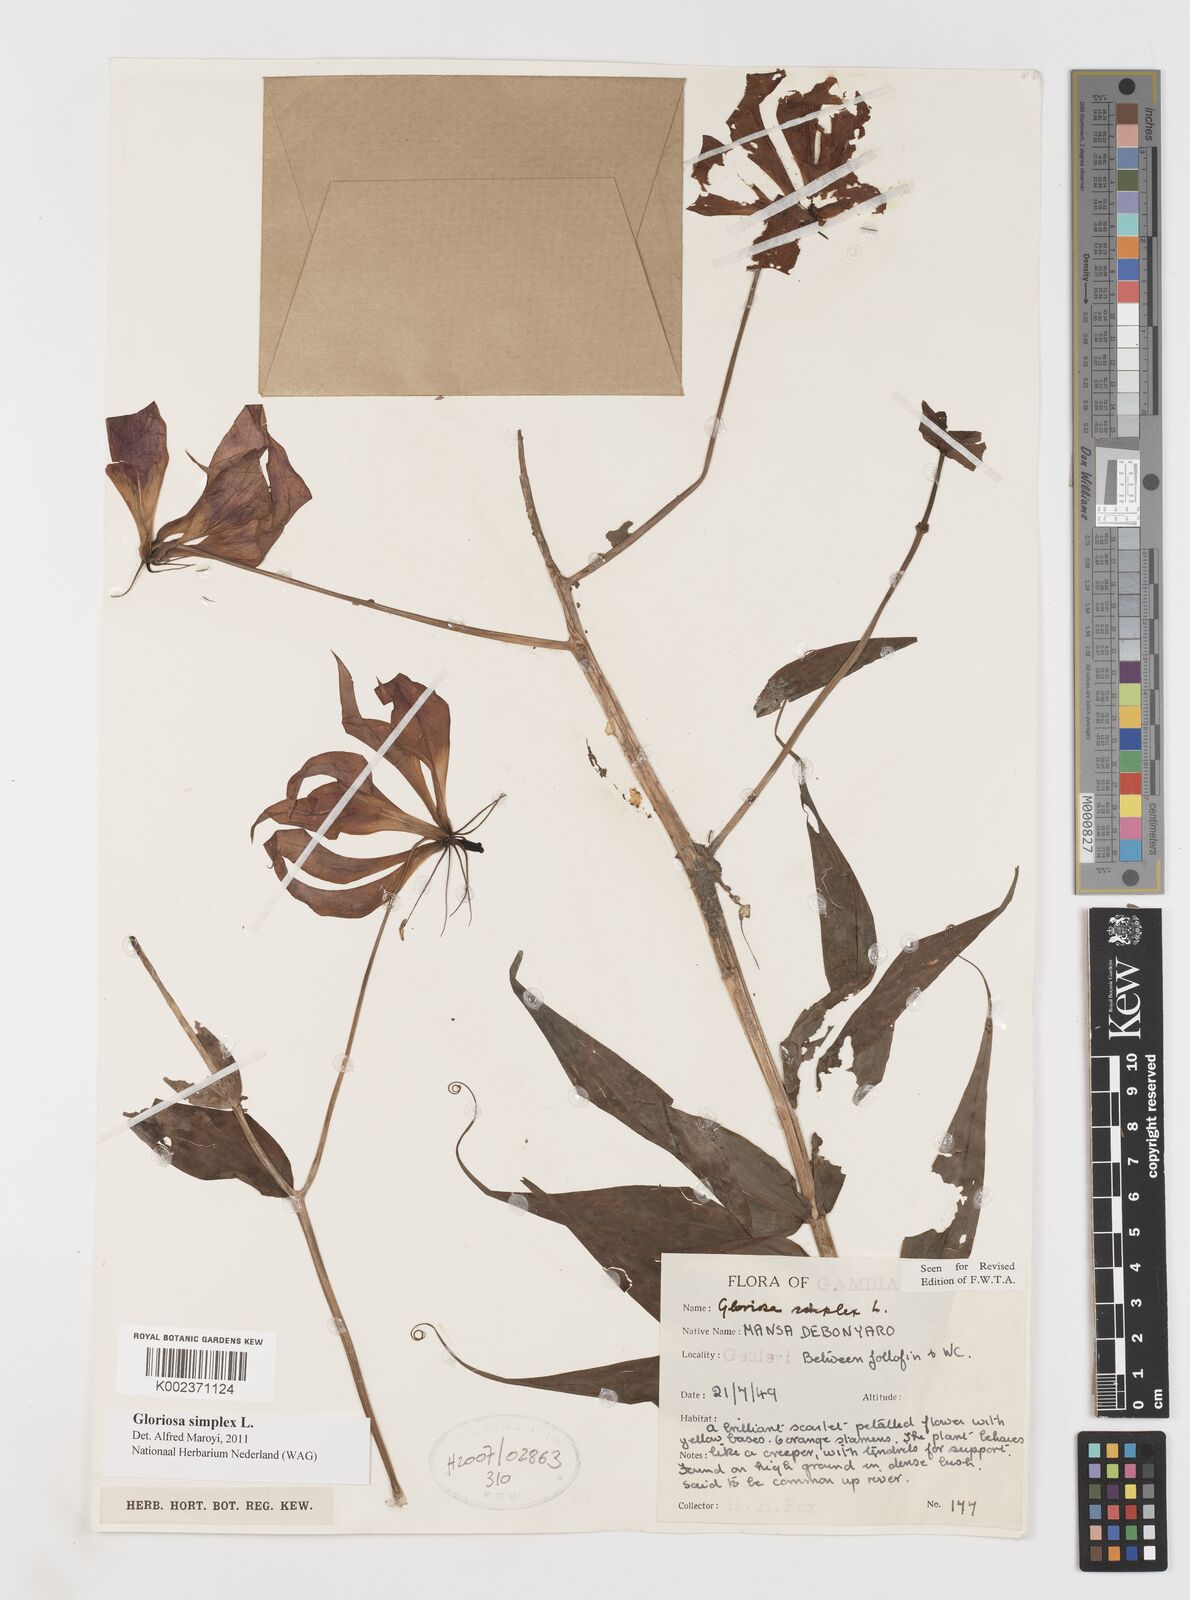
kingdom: Plantae
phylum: Tracheophyta
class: Liliopsida
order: Liliales
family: Colchicaceae
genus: Gloriosa
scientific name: Gloriosa simplex
